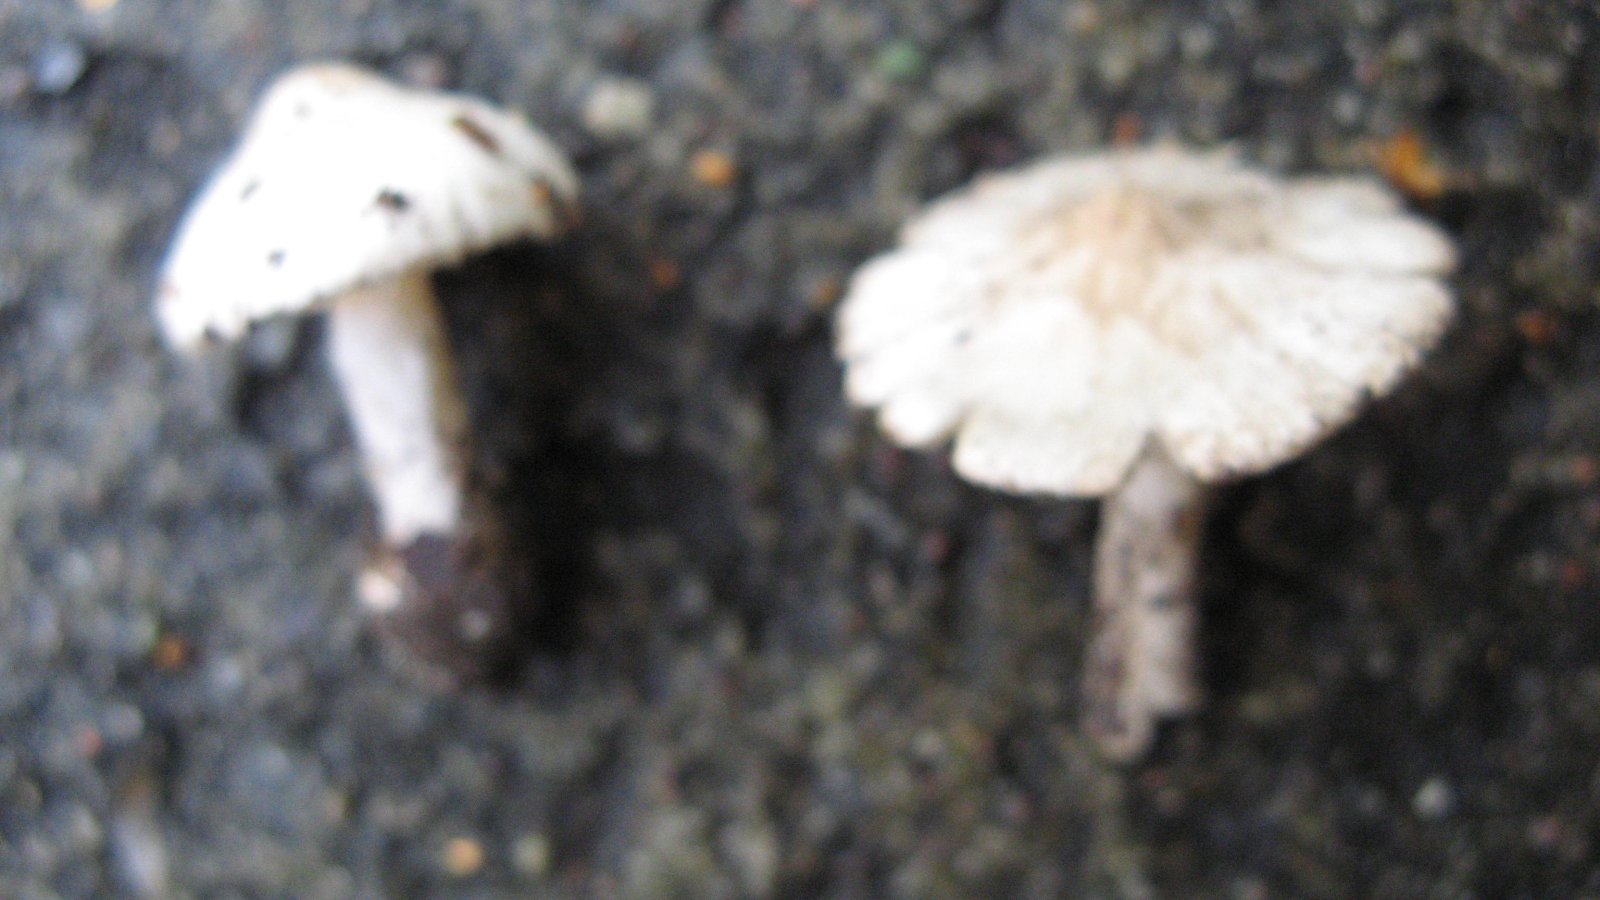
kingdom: Fungi
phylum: Basidiomycota
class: Agaricomycetes
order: Agaricales
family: Inocybaceae
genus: Inocybe
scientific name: Inocybe
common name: almindelig trævlhat
